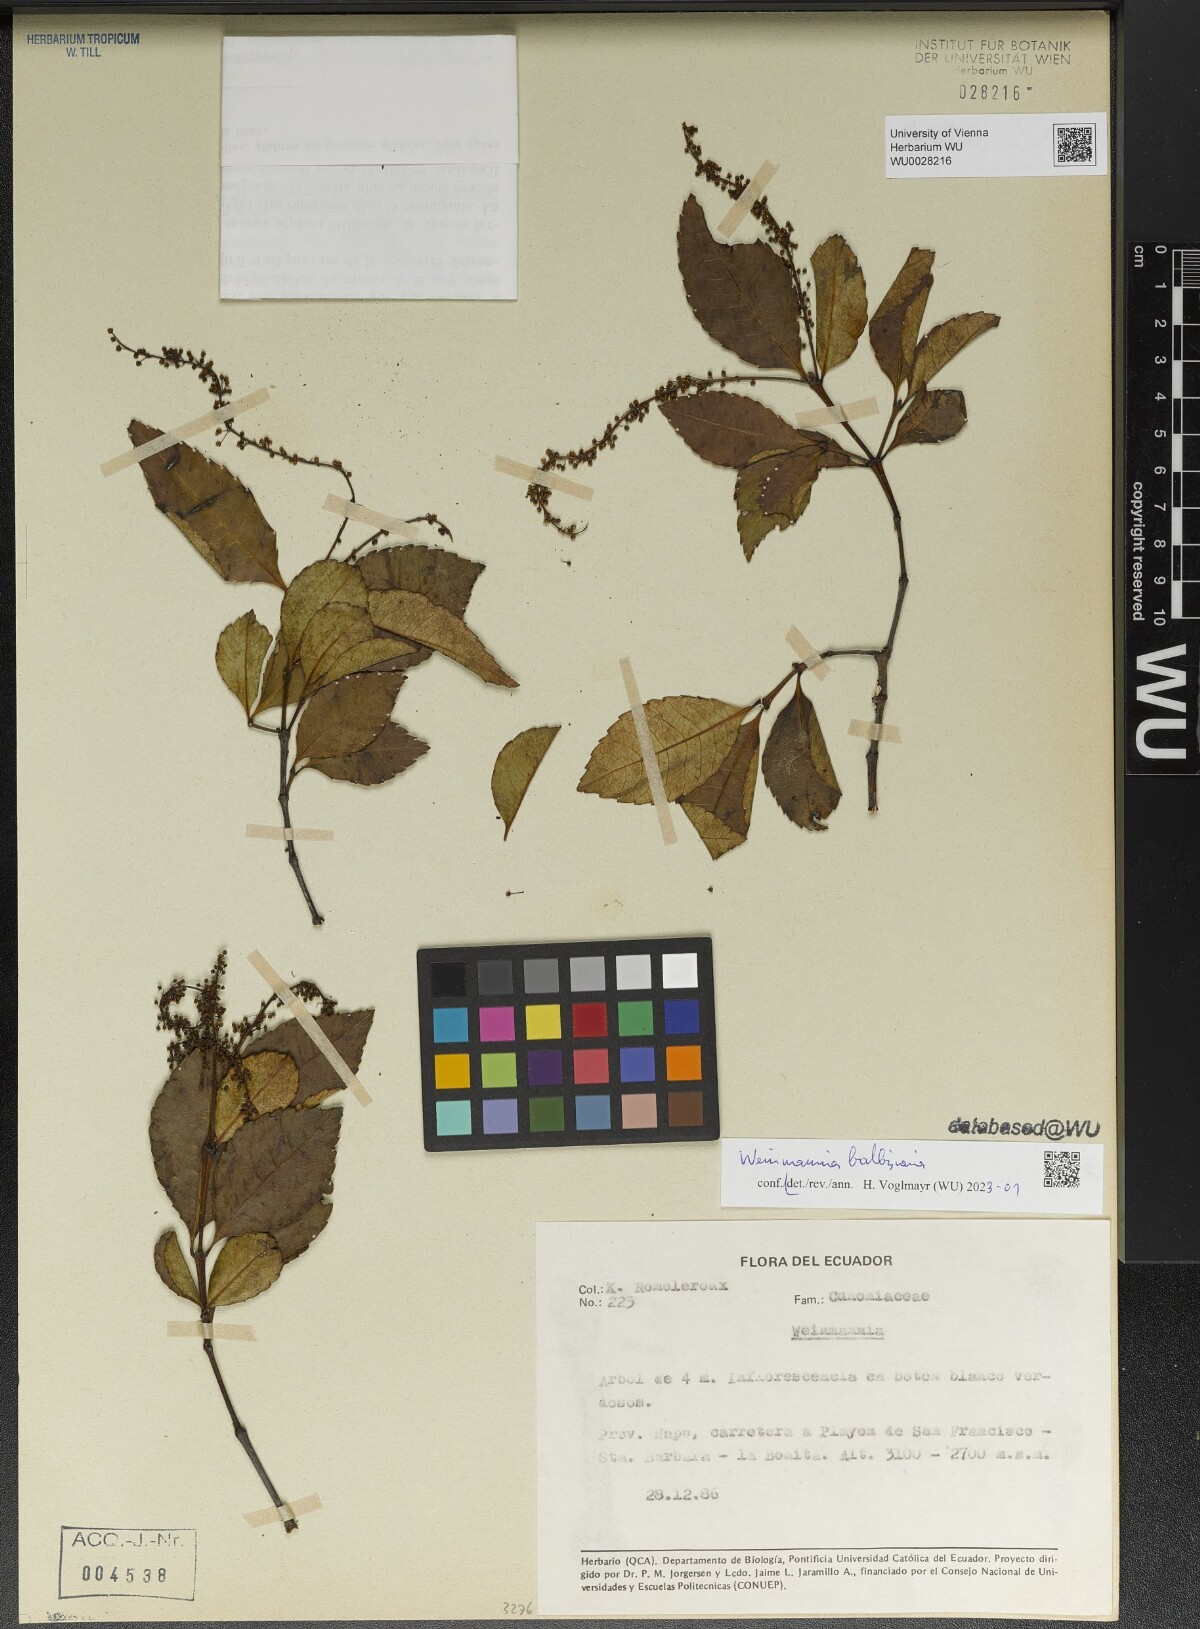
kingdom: Plantae
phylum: Tracheophyta
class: Magnoliopsida
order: Oxalidales
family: Cunoniaceae
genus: Weinmannia
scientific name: Weinmannia balbisana
